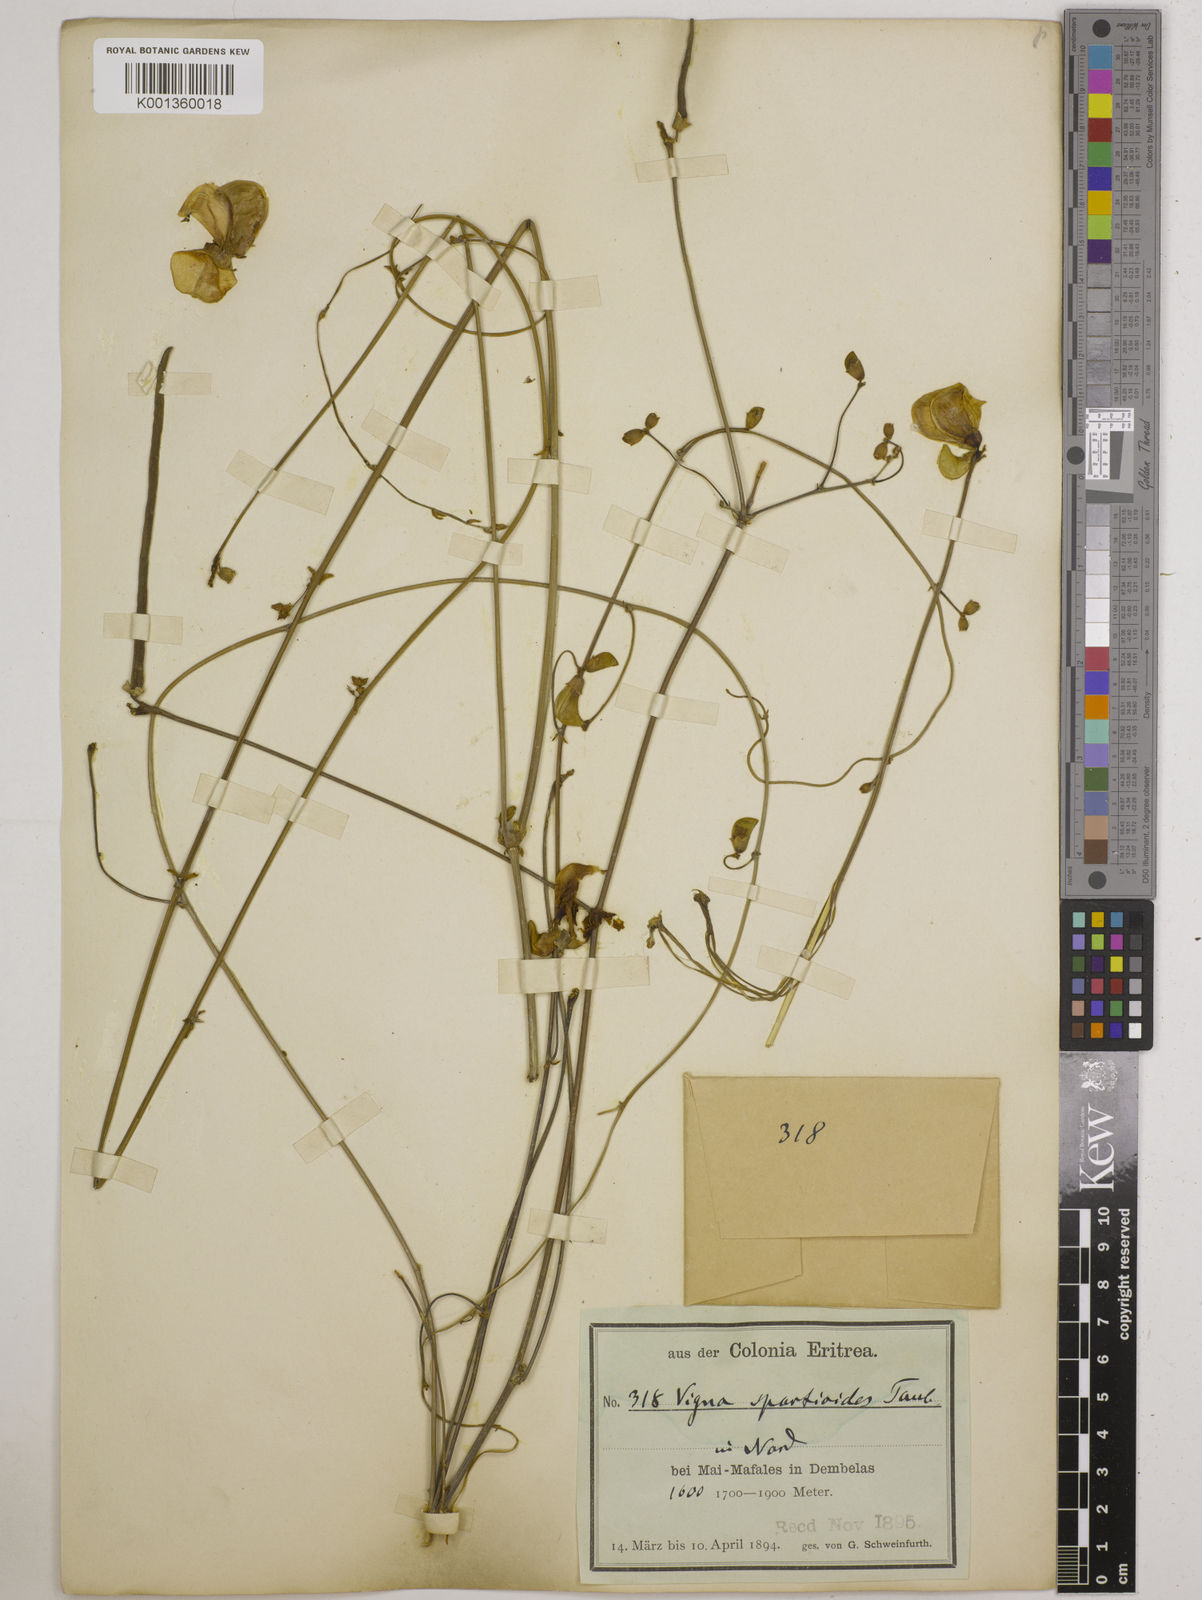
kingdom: Plantae
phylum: Tracheophyta
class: Magnoliopsida
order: Fabales
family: Fabaceae
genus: Vigna
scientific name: Vigna debanensis
